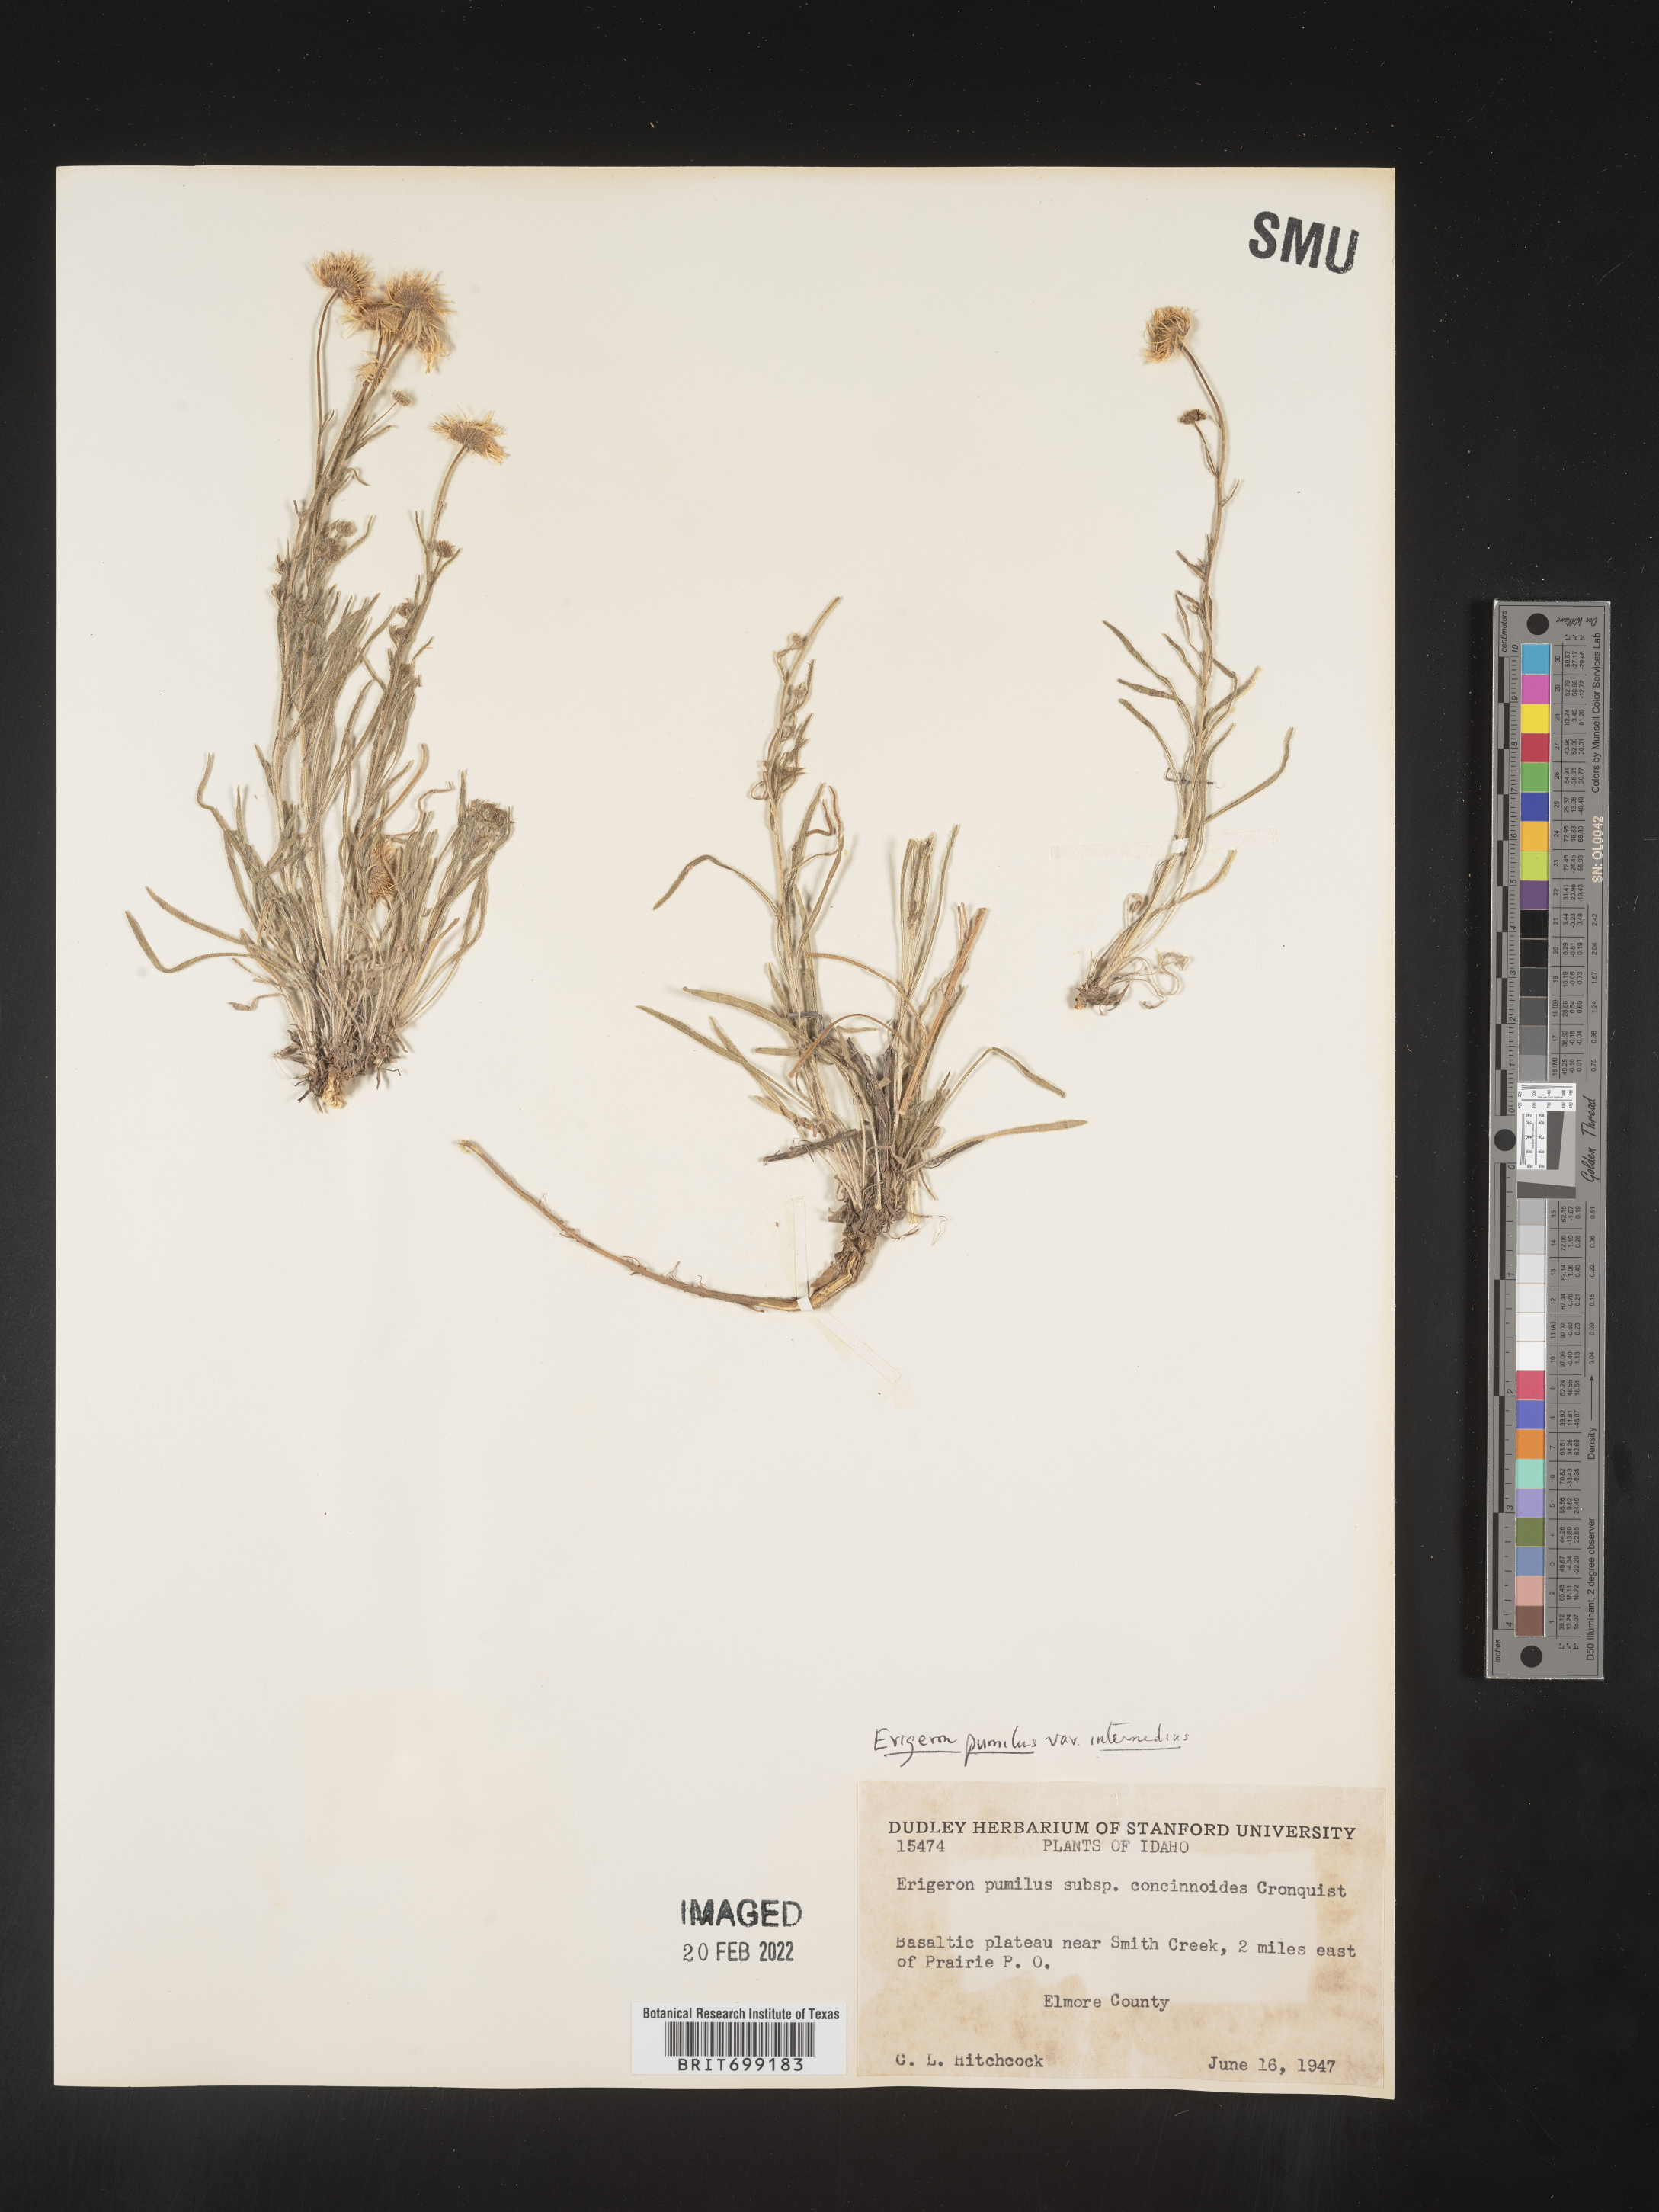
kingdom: Plantae
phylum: Tracheophyta
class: Magnoliopsida
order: Asterales
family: Asteraceae
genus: Erigeron
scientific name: Erigeron pumilus
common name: Shaggy fleabane
